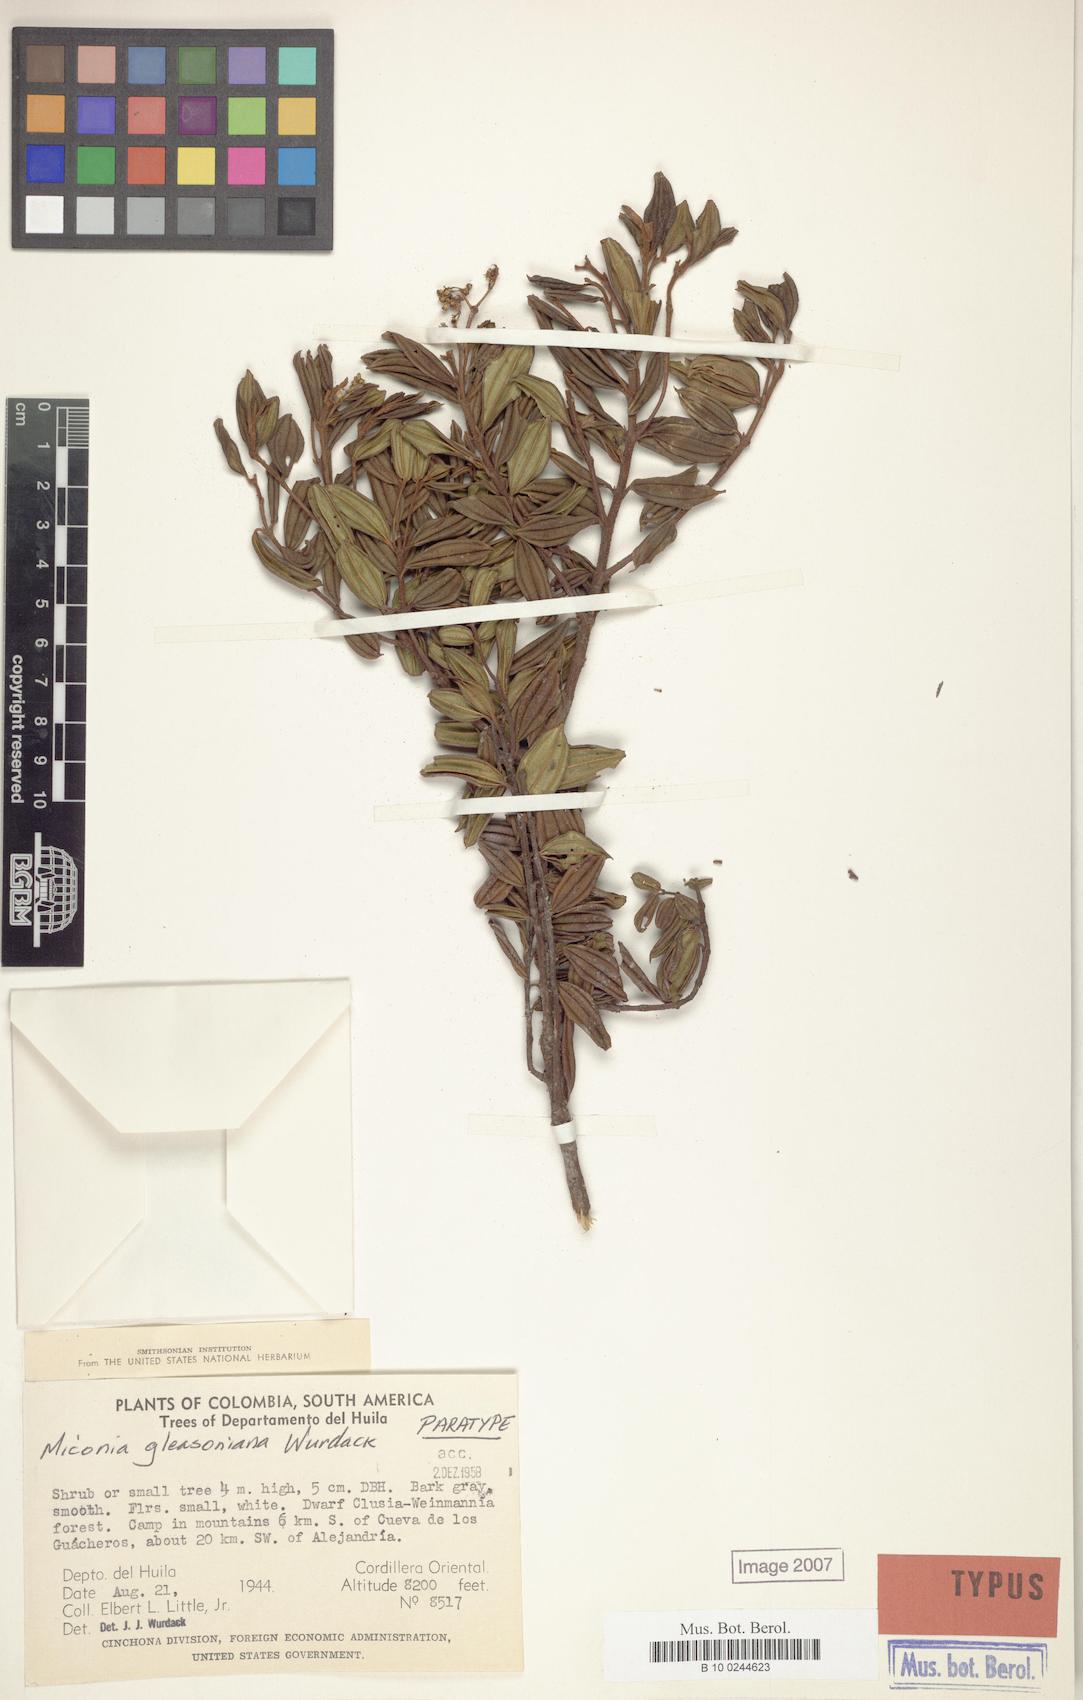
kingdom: Plantae
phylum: Tracheophyta
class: Magnoliopsida
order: Myrtales
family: Melastomataceae
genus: Miconia
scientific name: Miconia gleasoniana
